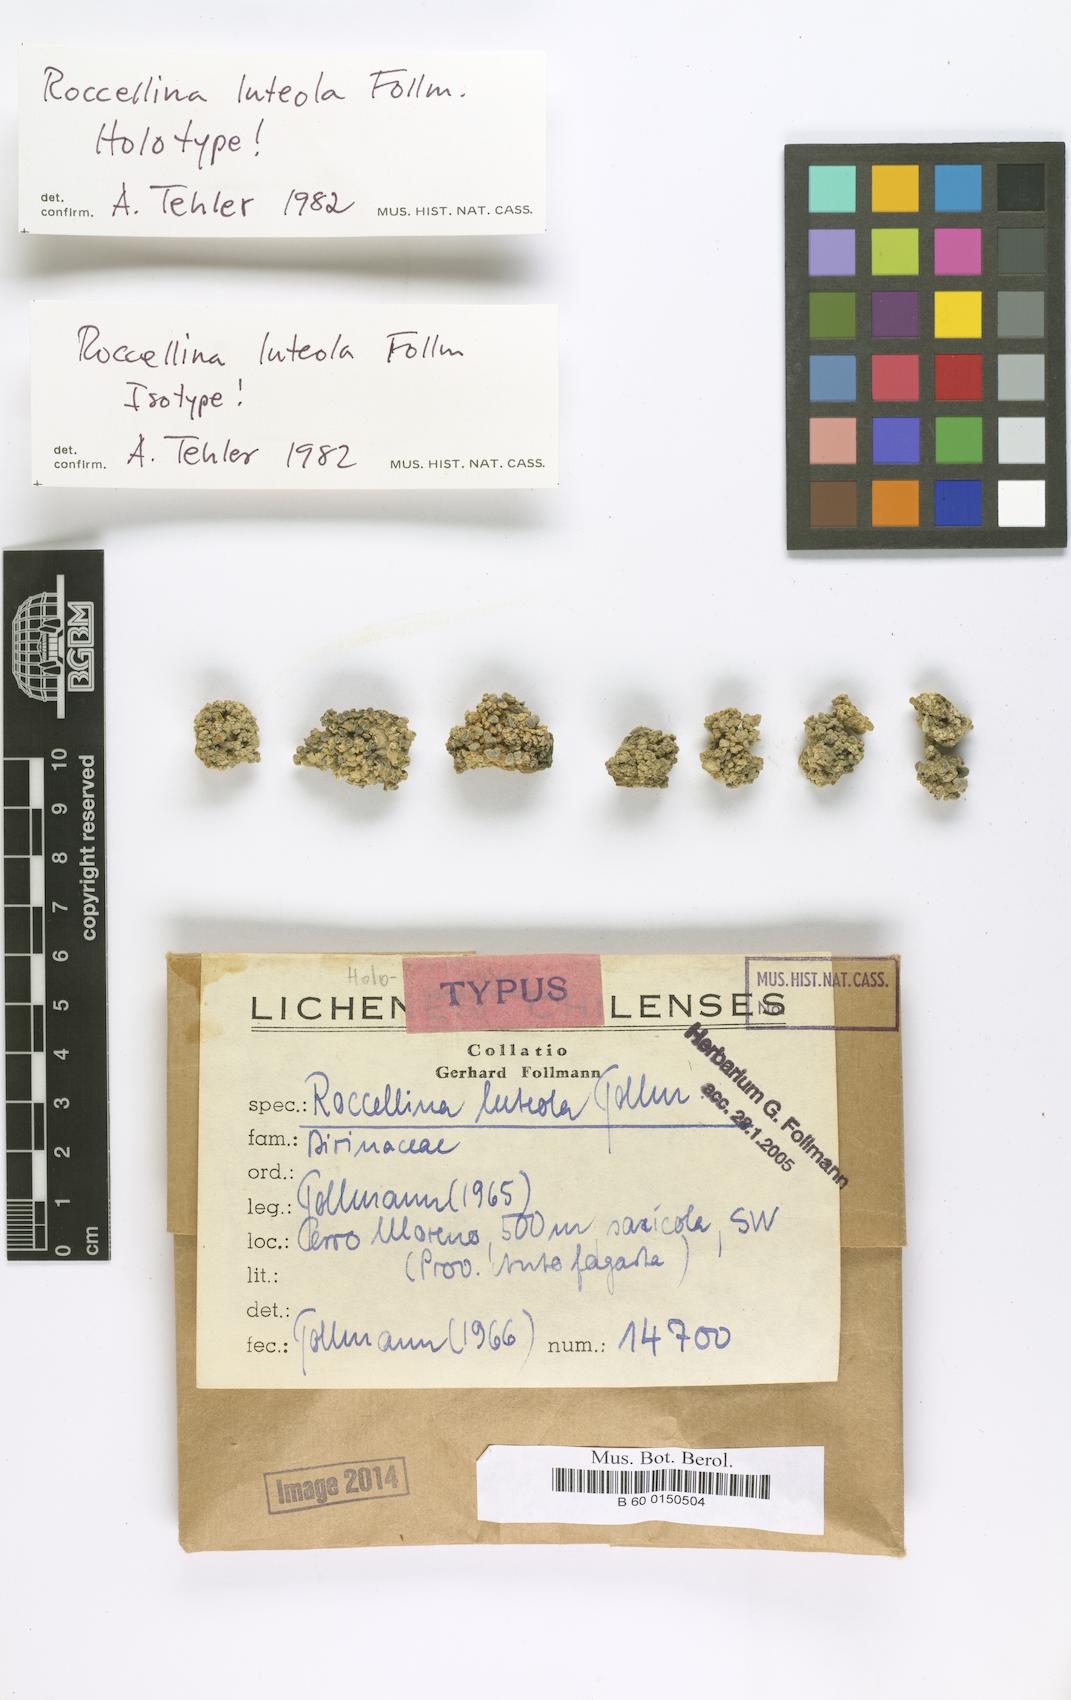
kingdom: Fungi
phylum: Ascomycota
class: Arthoniomycetes
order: Arthoniales
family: Roccellaceae
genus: Lecanactis
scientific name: Lecanactis luteola
